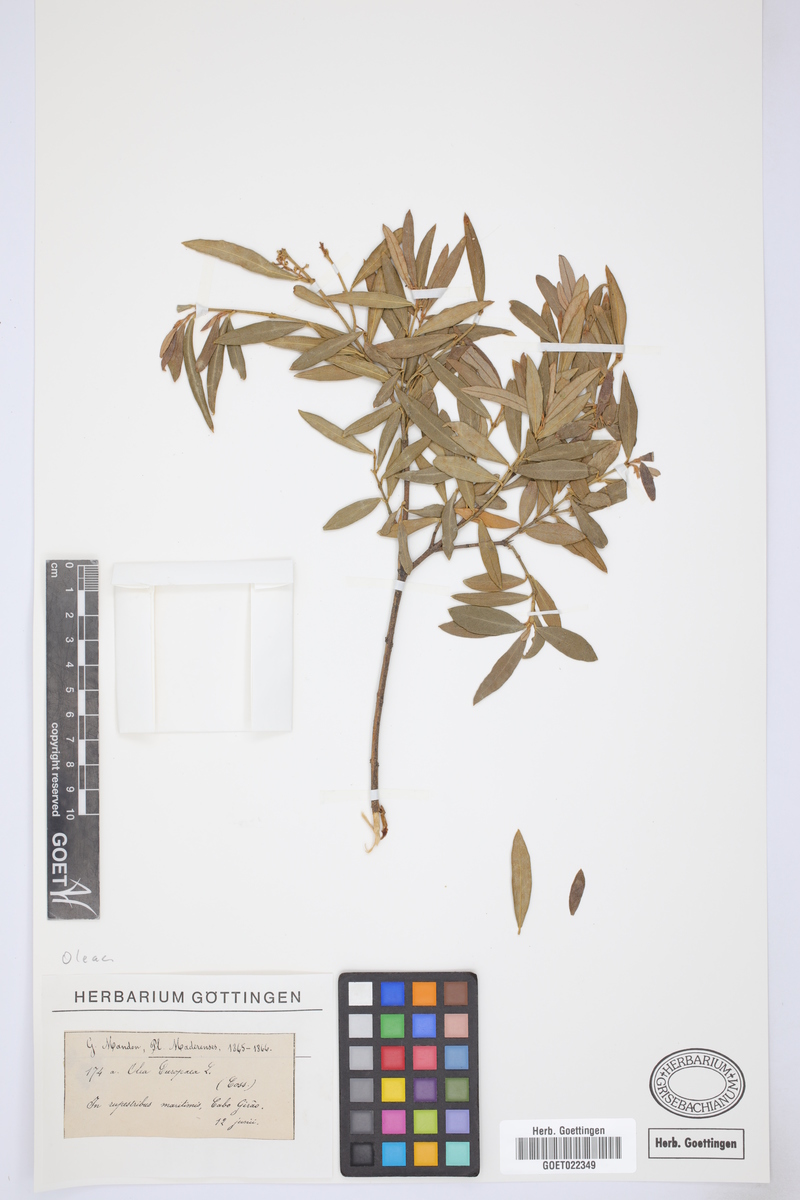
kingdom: Plantae
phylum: Tracheophyta
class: Magnoliopsida
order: Lamiales
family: Oleaceae
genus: Olea
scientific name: Olea europaea
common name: Olive
